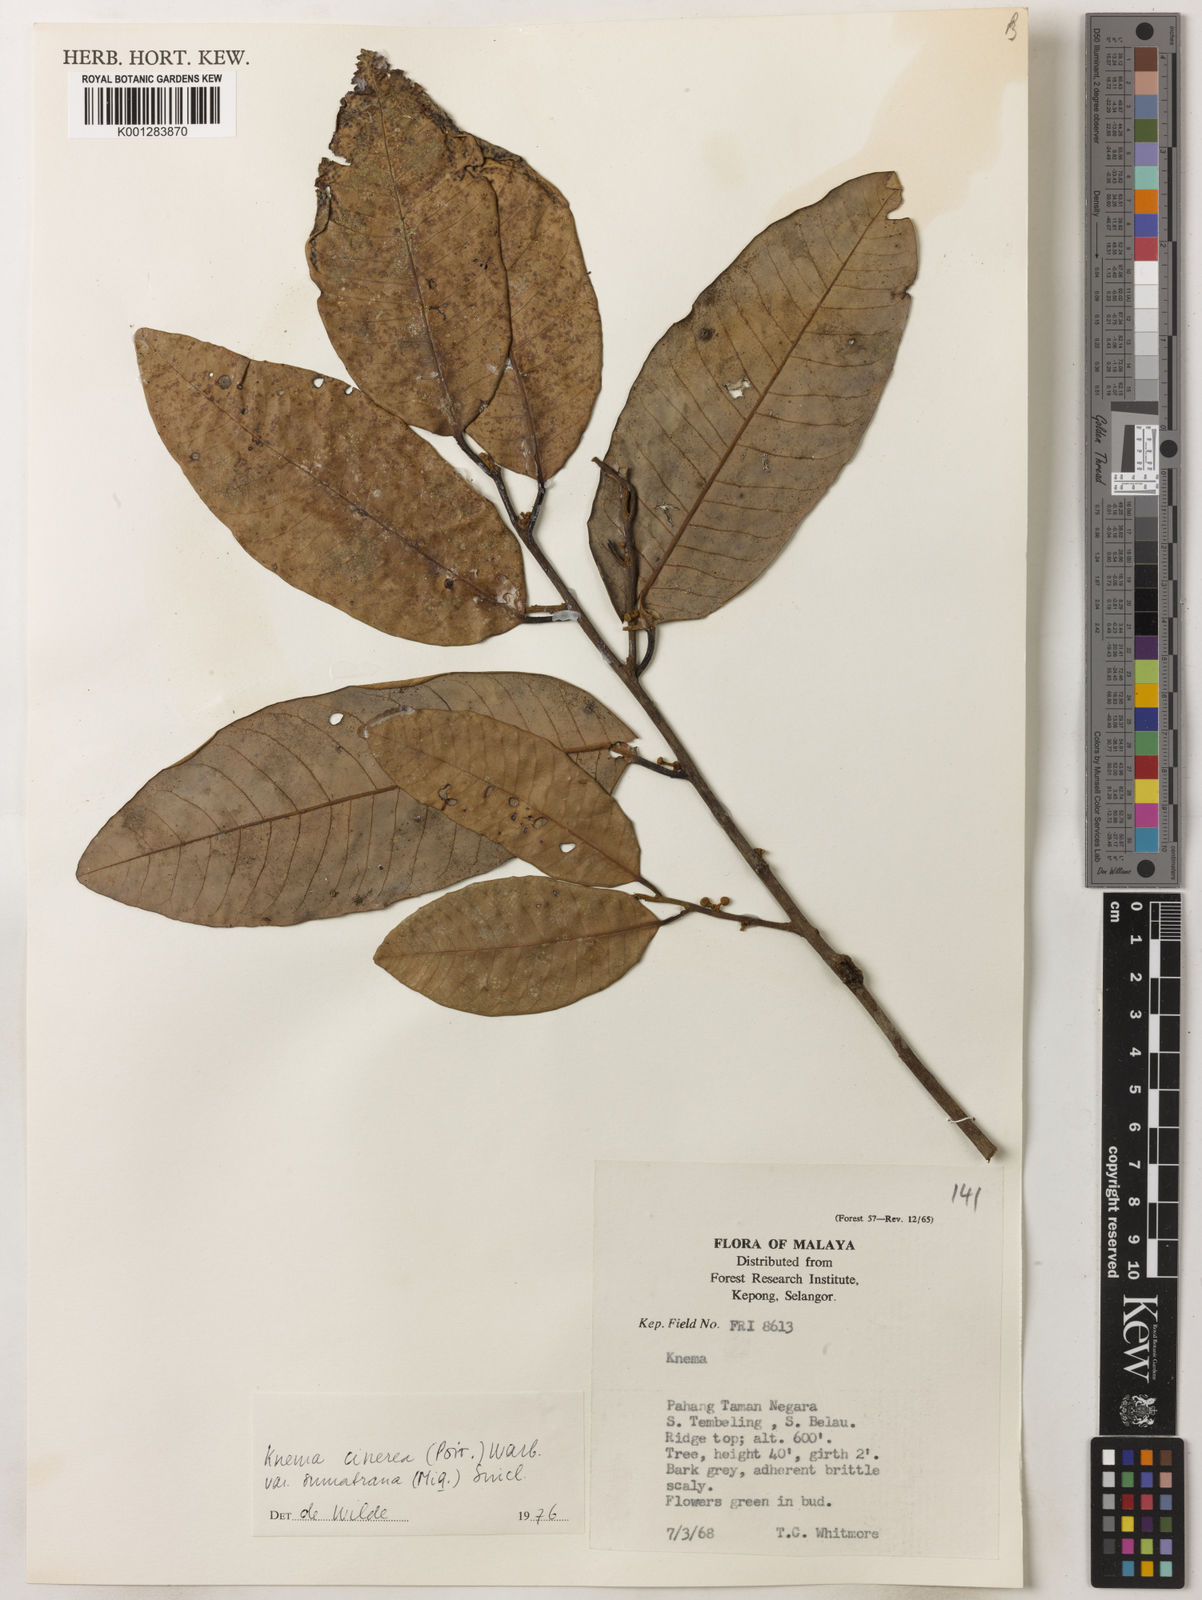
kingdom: Plantae
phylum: Tracheophyta
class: Magnoliopsida
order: Magnoliales
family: Myristicaceae
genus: Knema
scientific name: Knema
